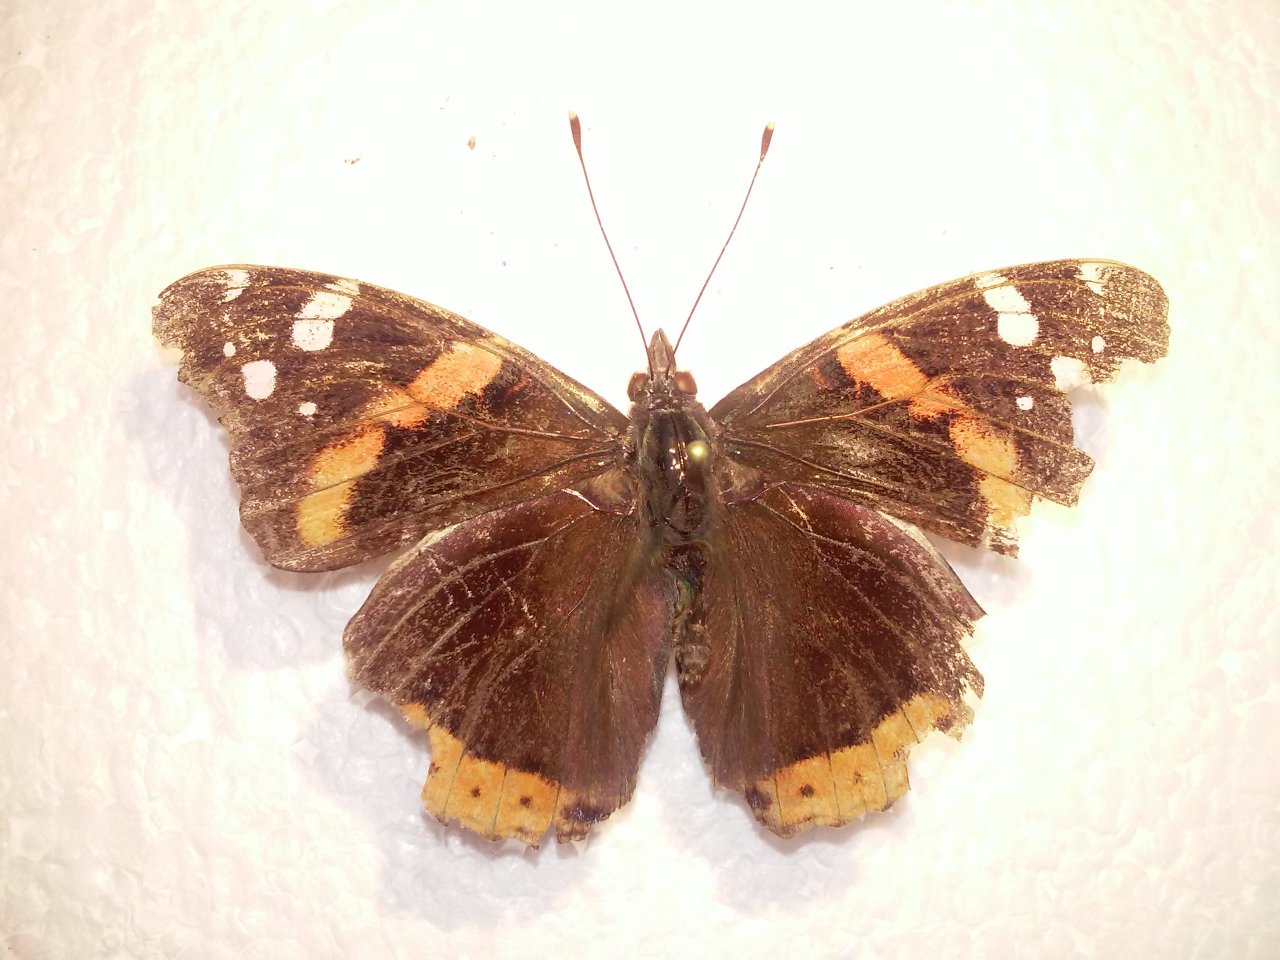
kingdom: Animalia
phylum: Arthropoda
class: Insecta
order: Lepidoptera
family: Nymphalidae
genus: Vanessa
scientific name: Vanessa atalanta
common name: Red Admiral
